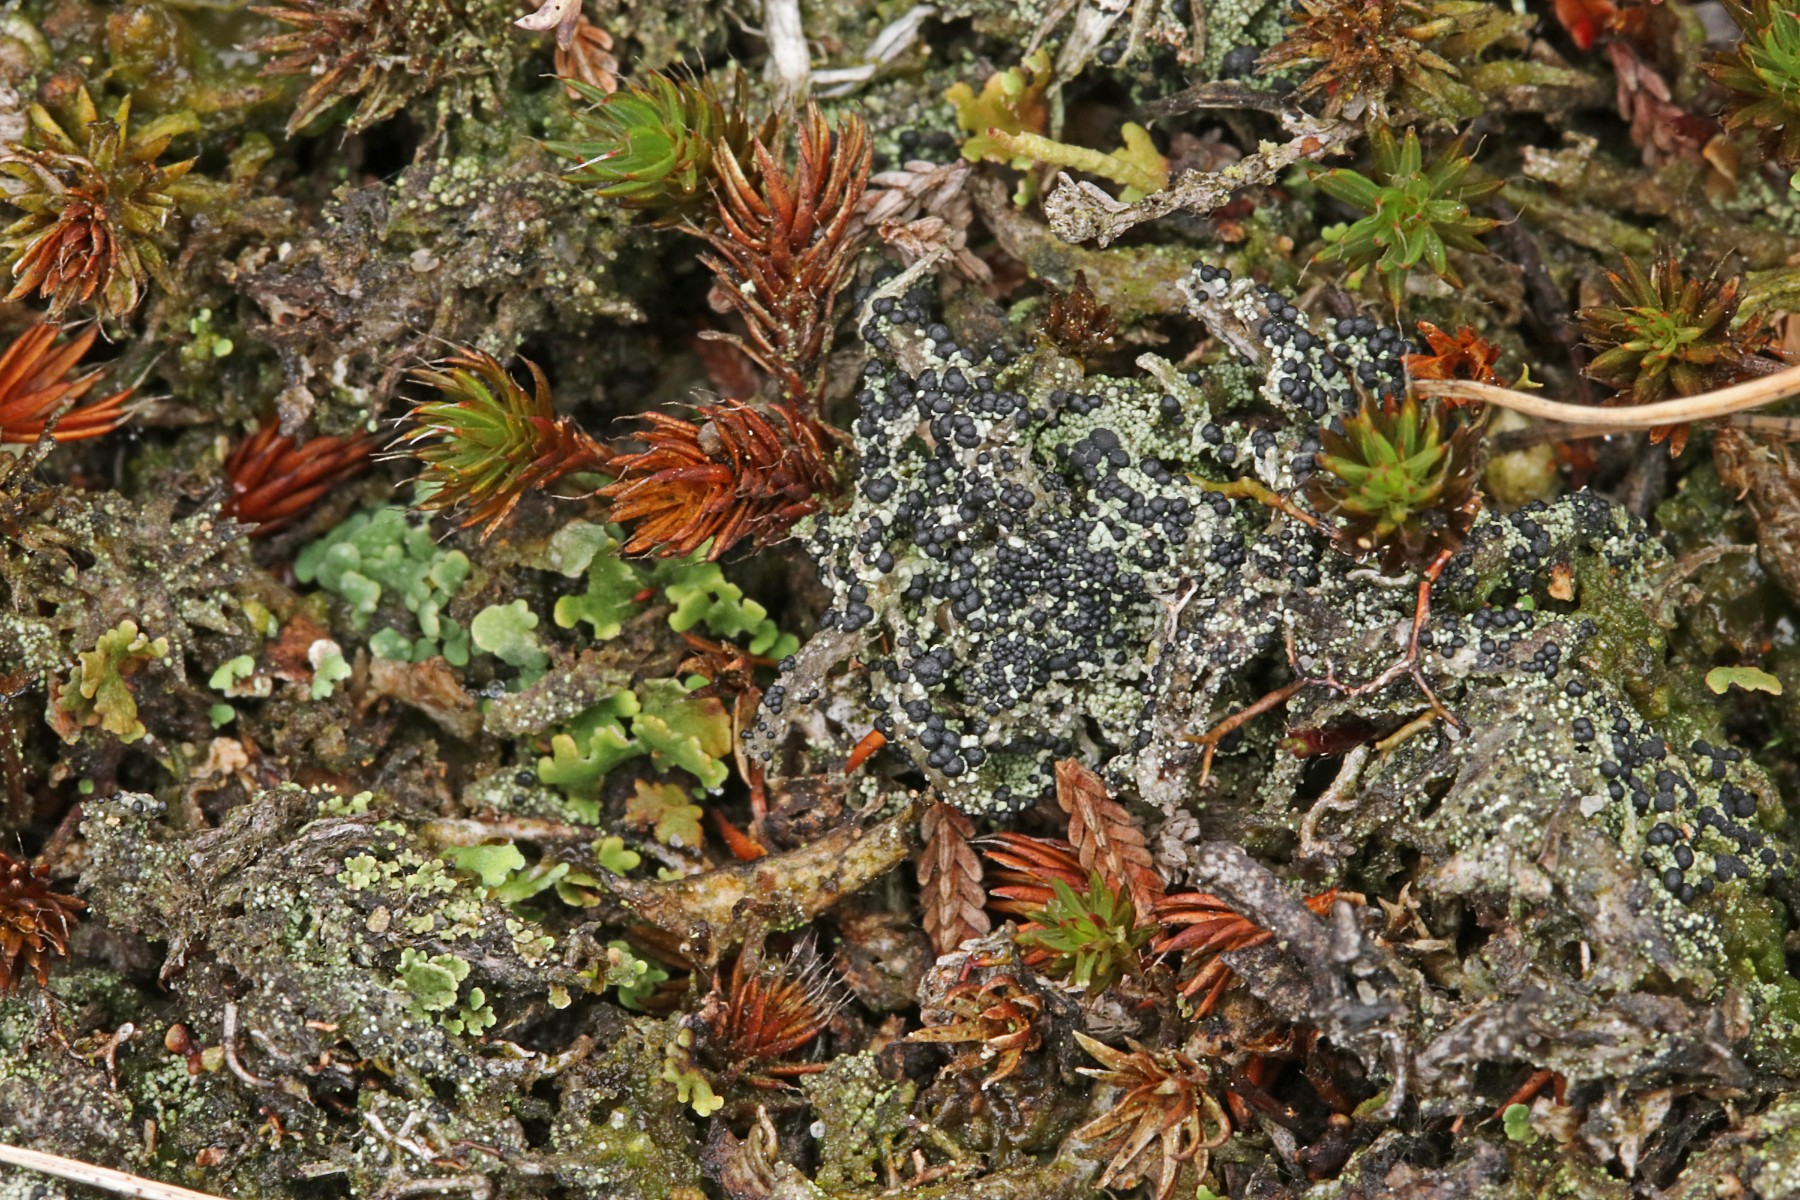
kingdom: Fungi
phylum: Ascomycota
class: Lecanoromycetes
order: Lecanorales
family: Byssolomataceae
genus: Micarea
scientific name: Micarea lignaria
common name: tørve-knaplav
